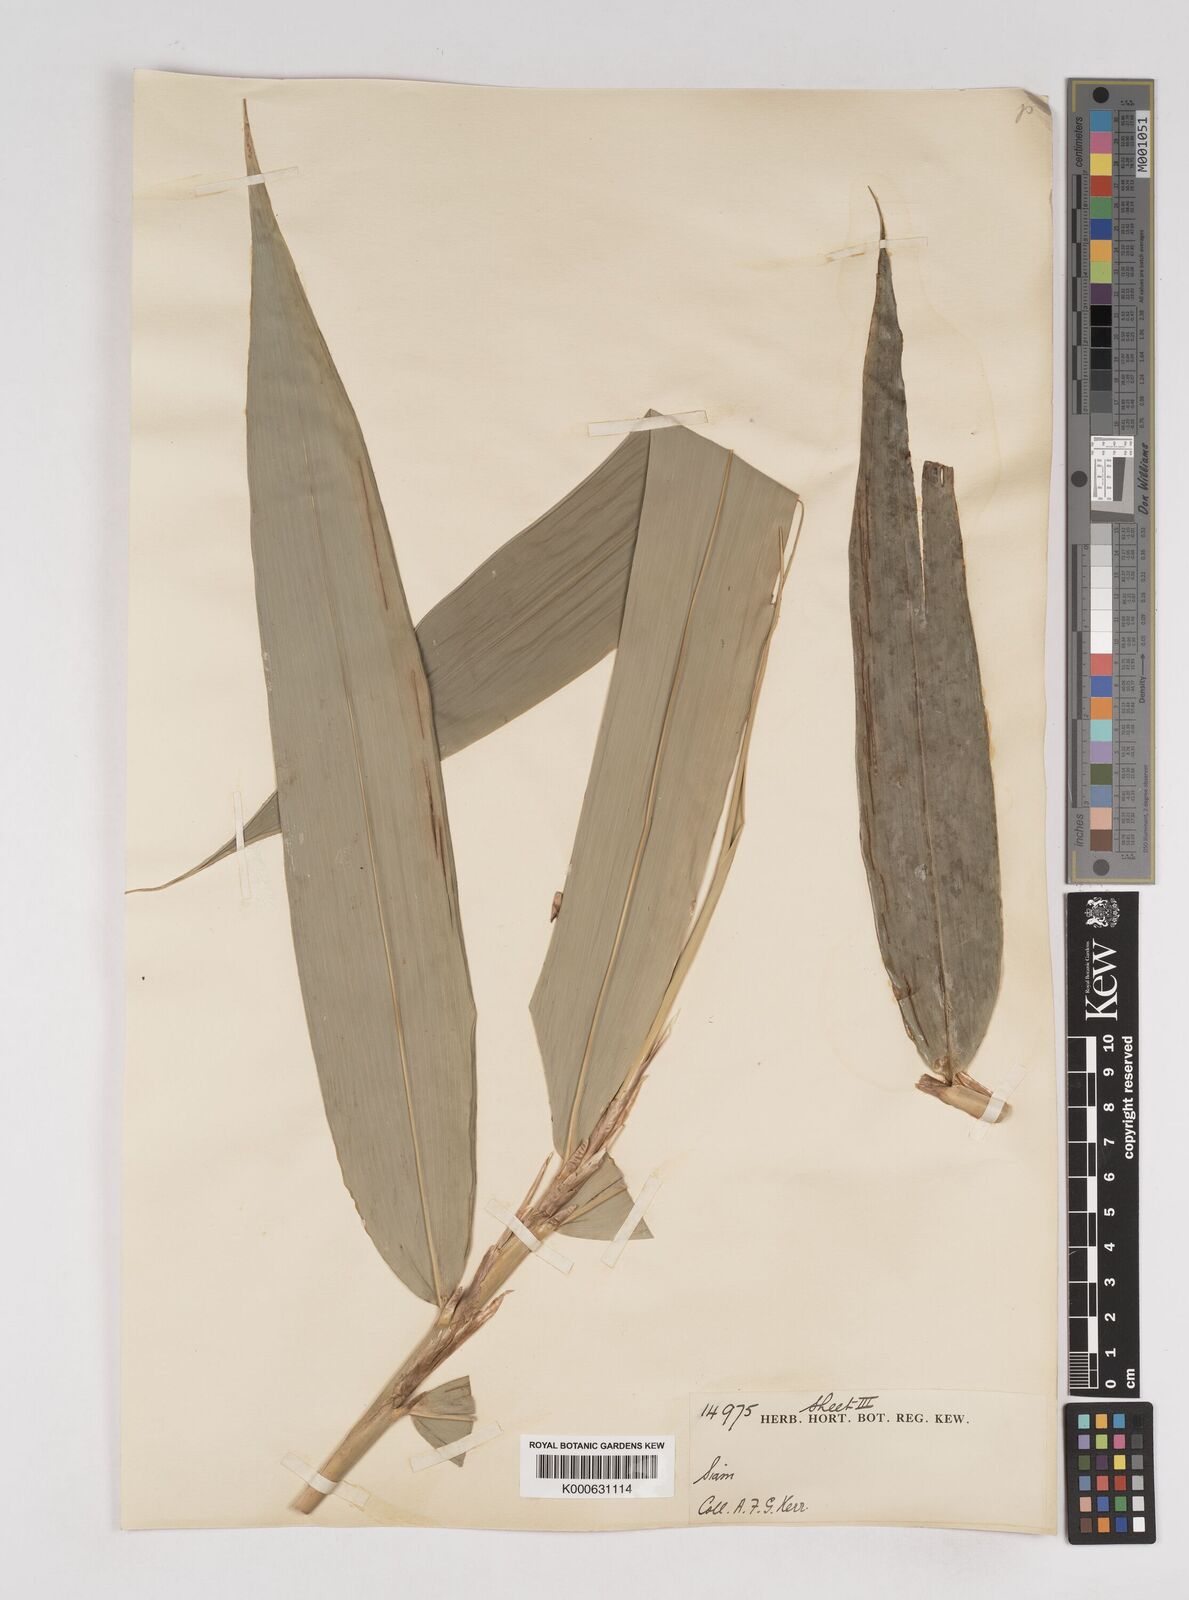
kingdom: Plantae
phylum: Tracheophyta
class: Liliopsida
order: Poales
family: Poaceae
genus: Gigantochloa
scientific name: Gigantochloa ligulata
